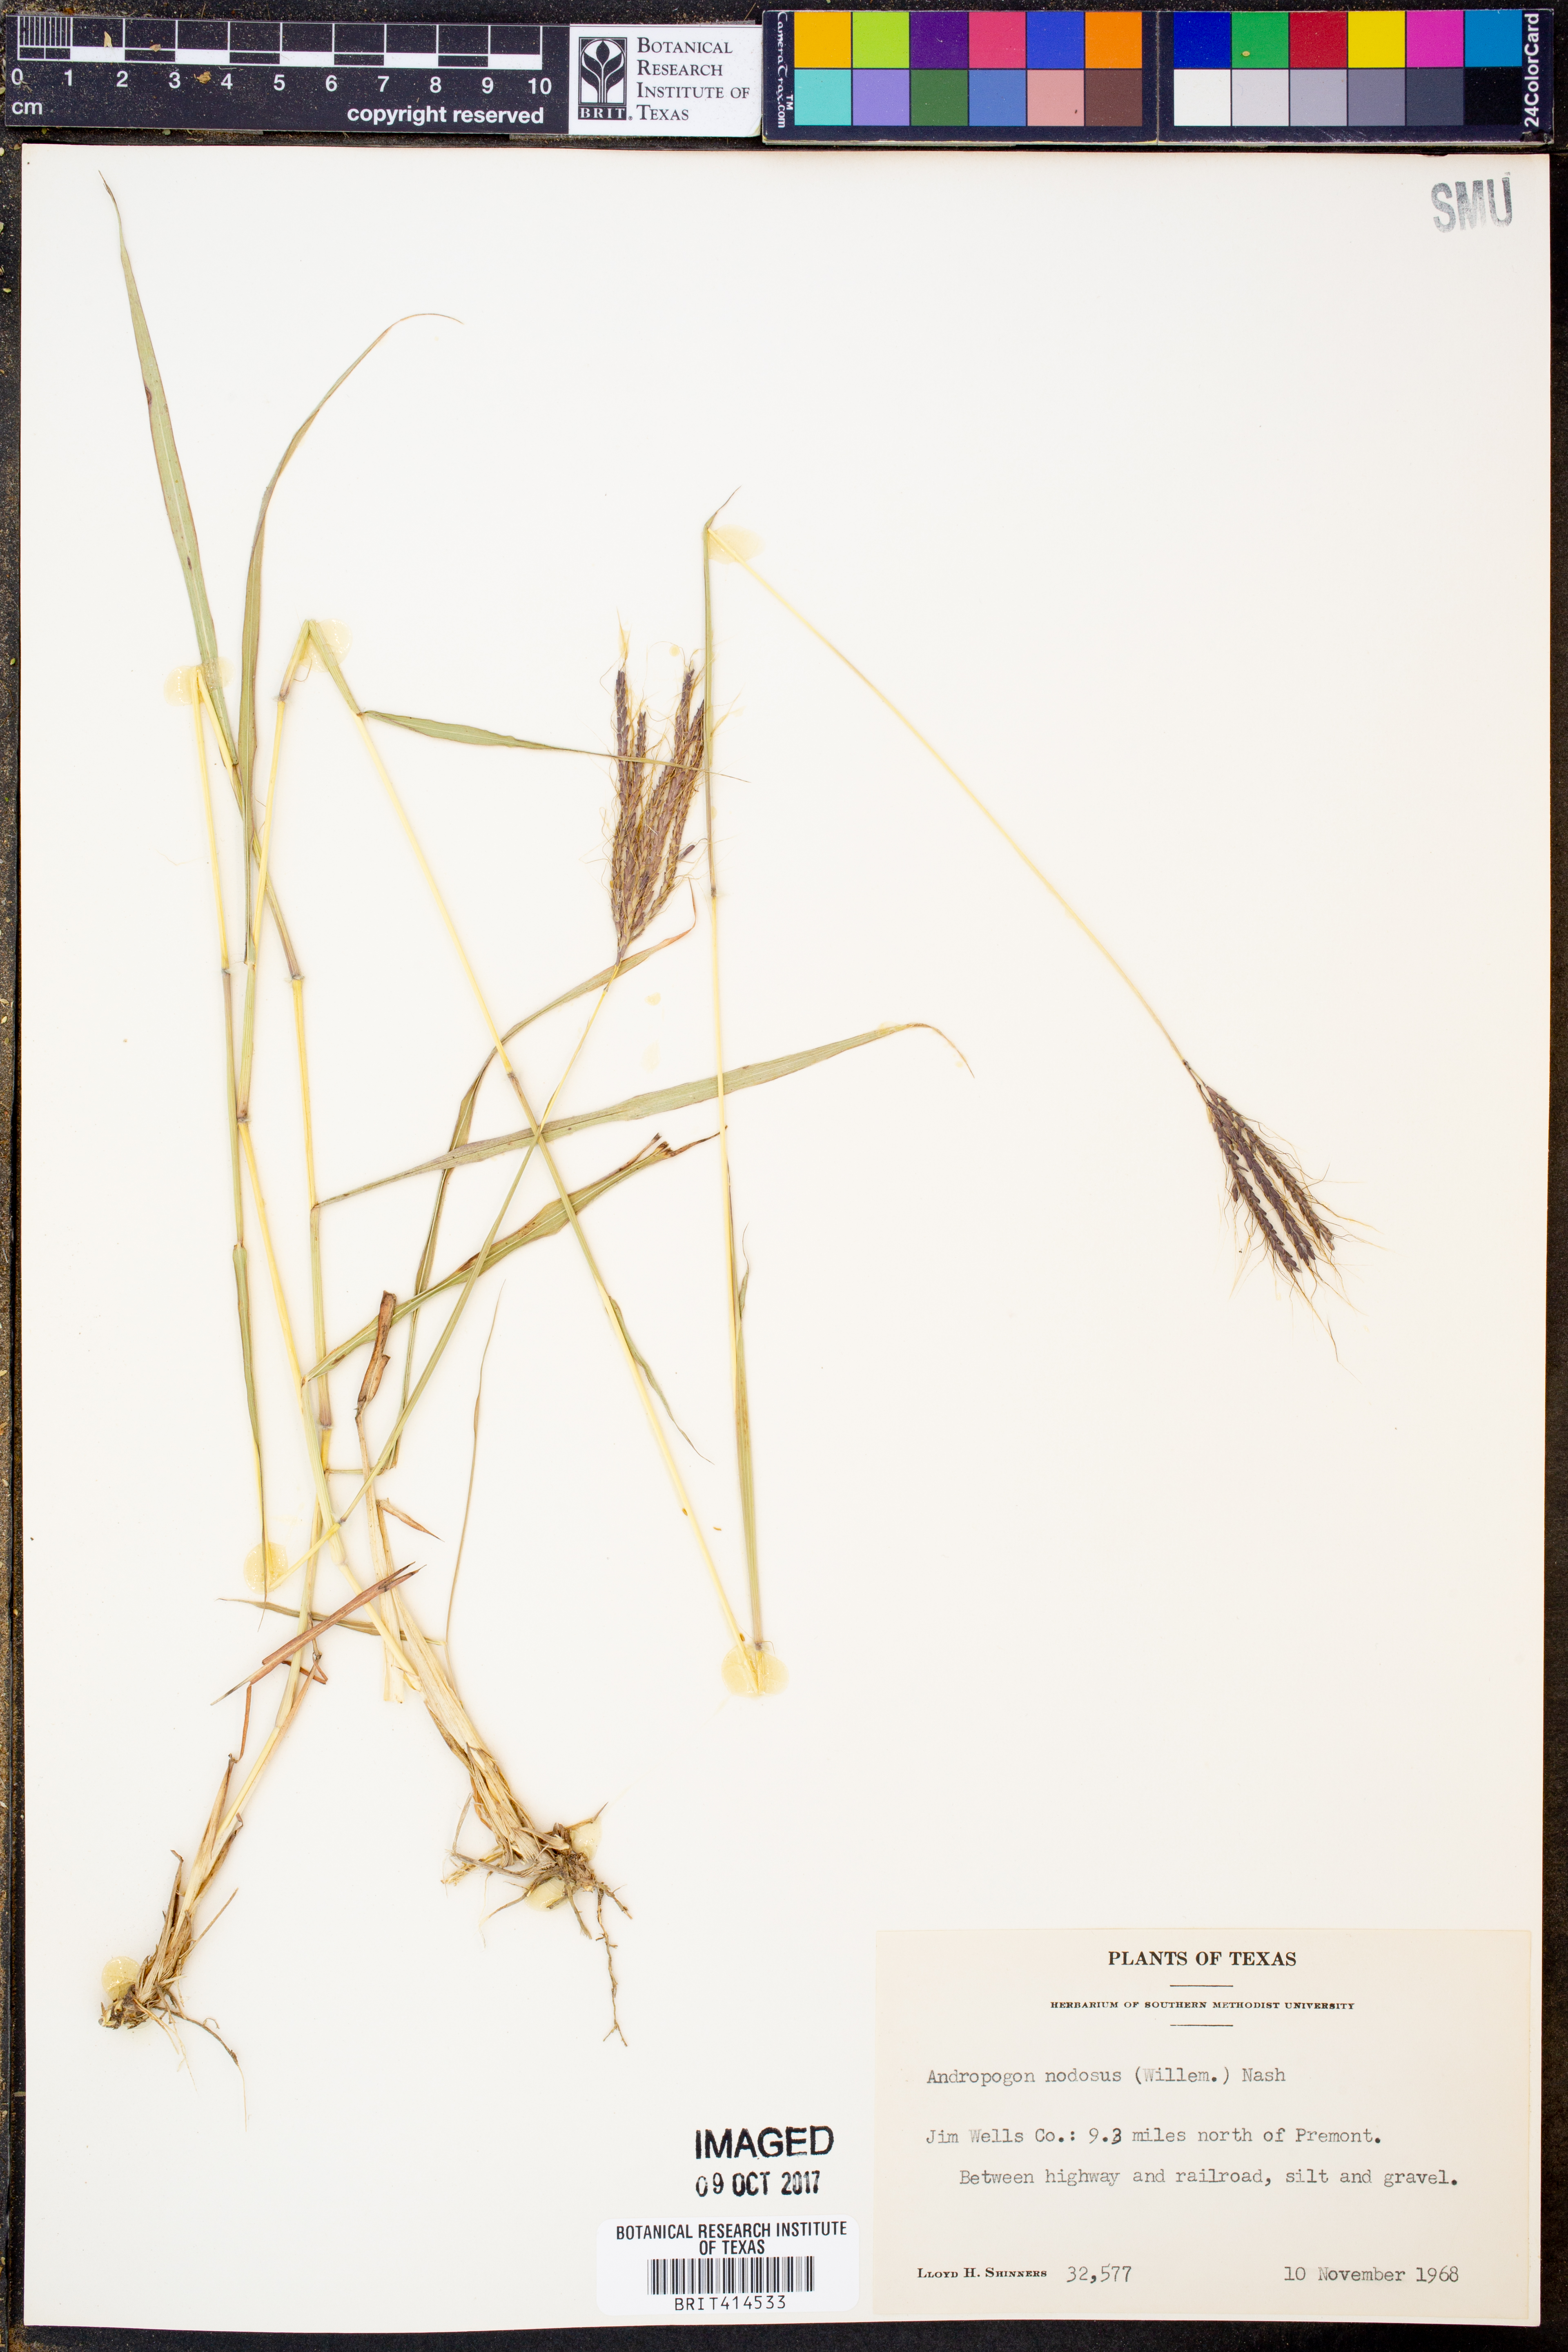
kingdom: Plantae
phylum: Tracheophyta
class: Liliopsida
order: Poales
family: Poaceae
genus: Dichanthium
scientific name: Dichanthium annulatum
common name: Kleberg's bluestem
